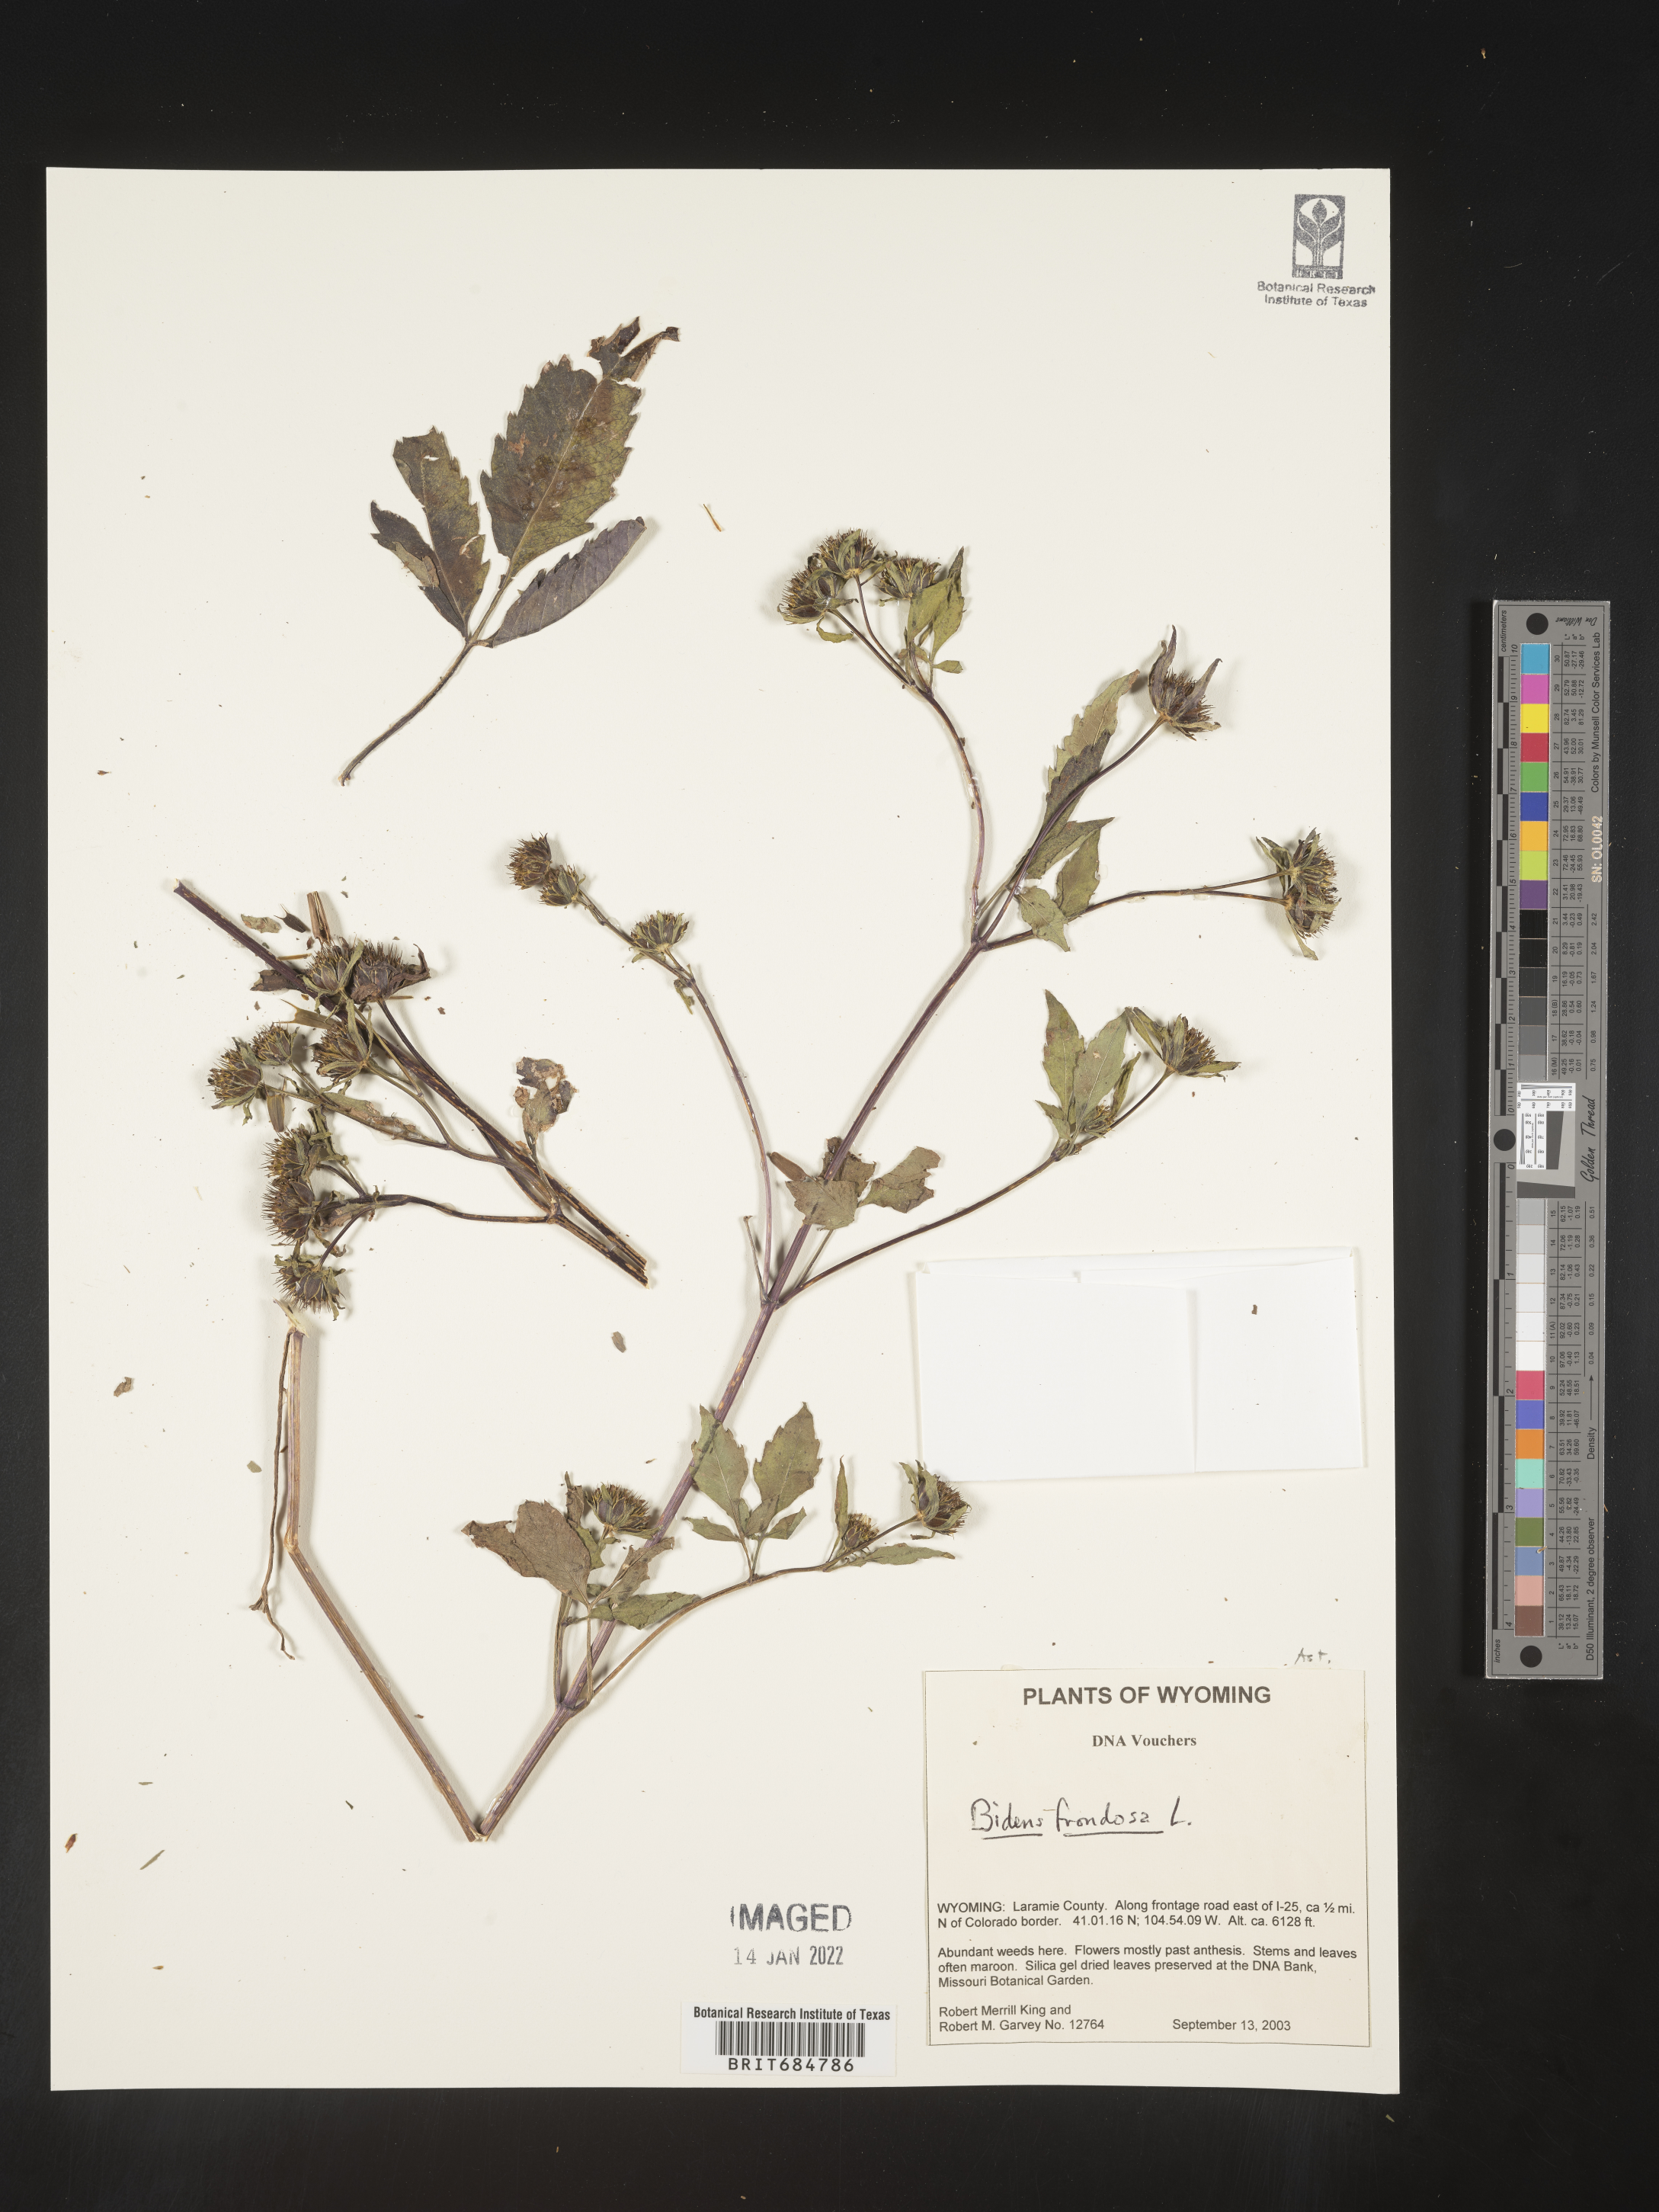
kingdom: Plantae
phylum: Tracheophyta
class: Magnoliopsida
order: Asterales
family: Asteraceae
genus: Bidens
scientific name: Bidens frondosa
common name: Beggarticks
